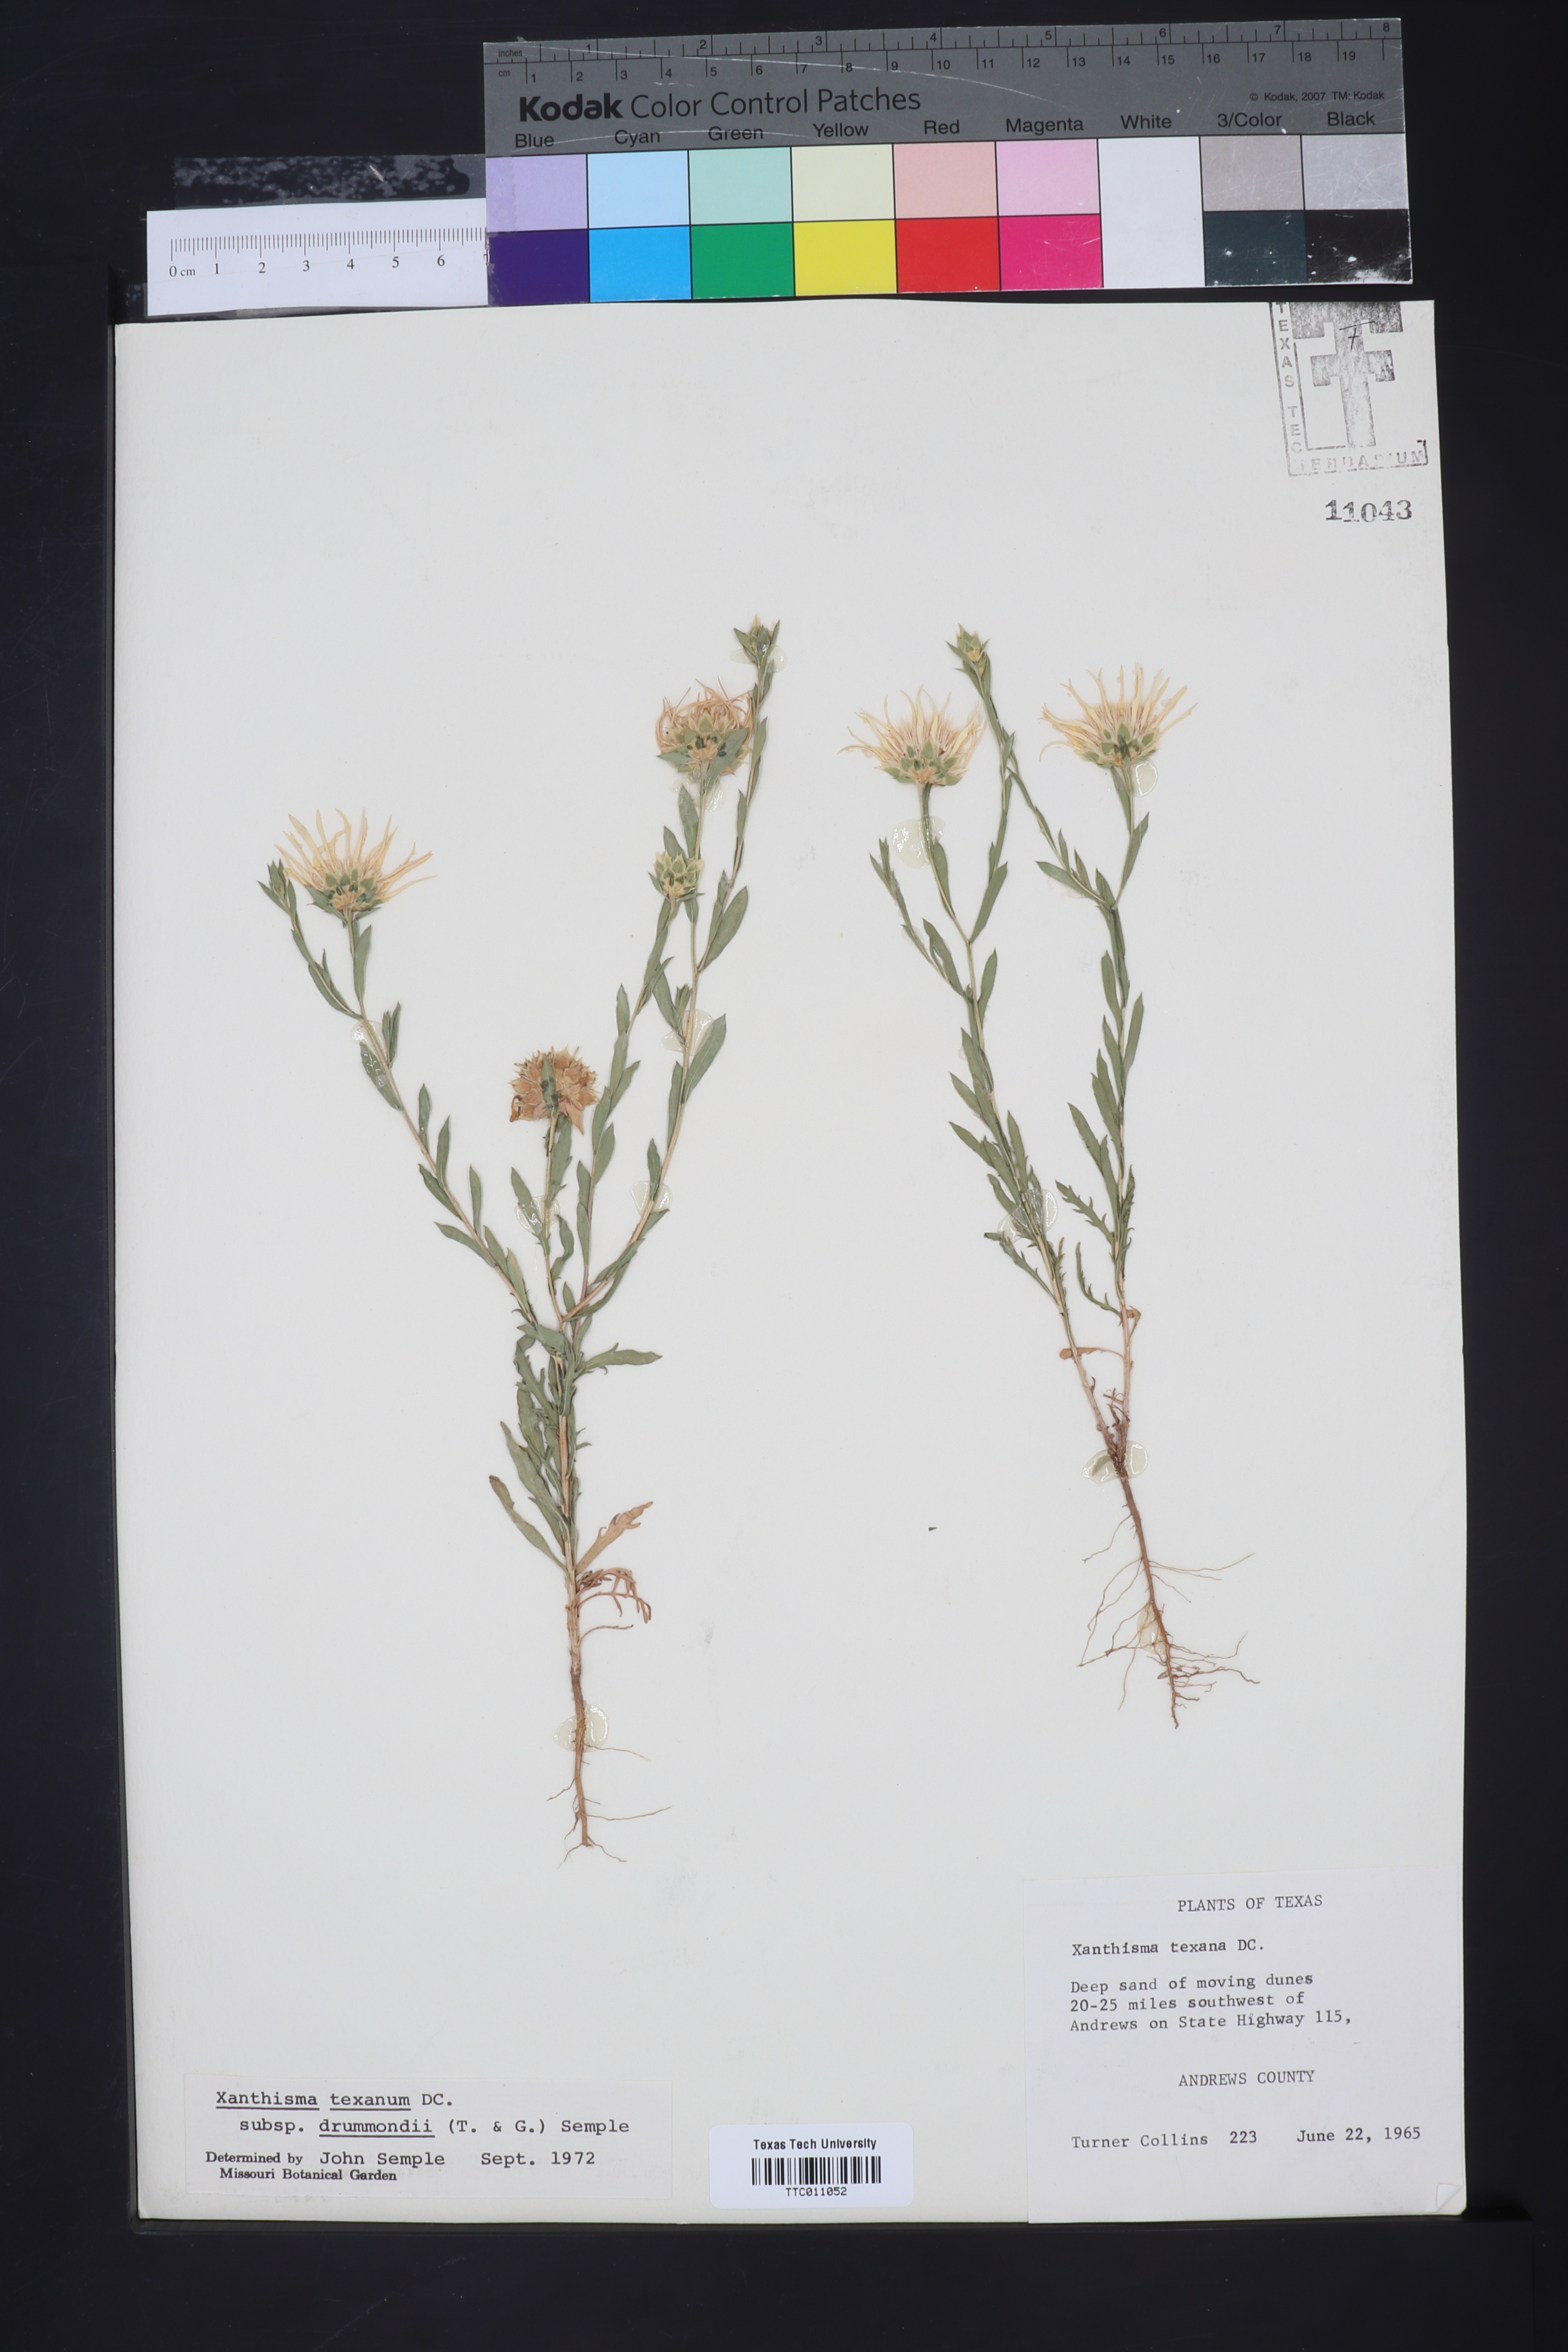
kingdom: Plantae
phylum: Tracheophyta
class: Magnoliopsida
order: Asterales
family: Asteraceae
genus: Xanthisma
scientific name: Xanthisma texanum
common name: Texas sleepy daisy
